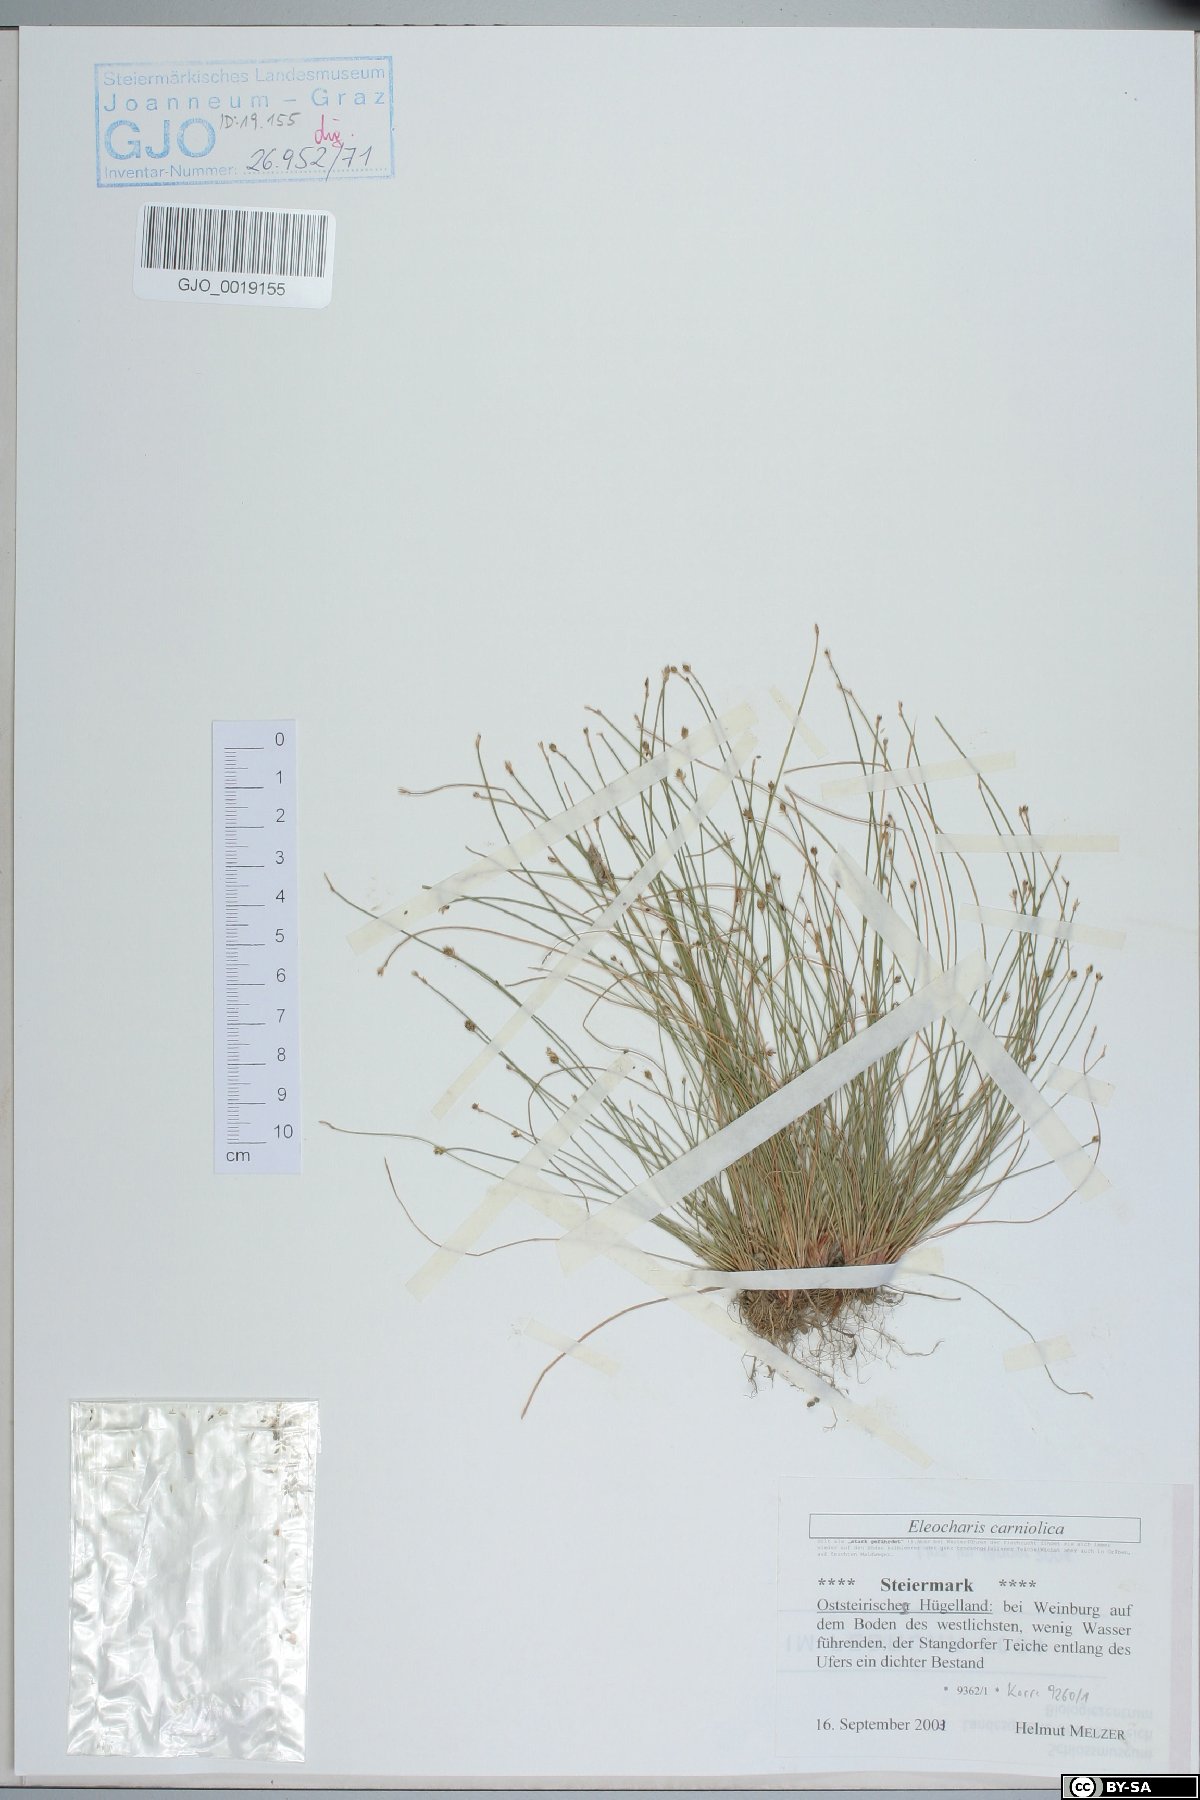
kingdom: Plantae
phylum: Tracheophyta
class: Liliopsida
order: Poales
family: Cyperaceae
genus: Eleocharis
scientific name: Eleocharis carniolica
